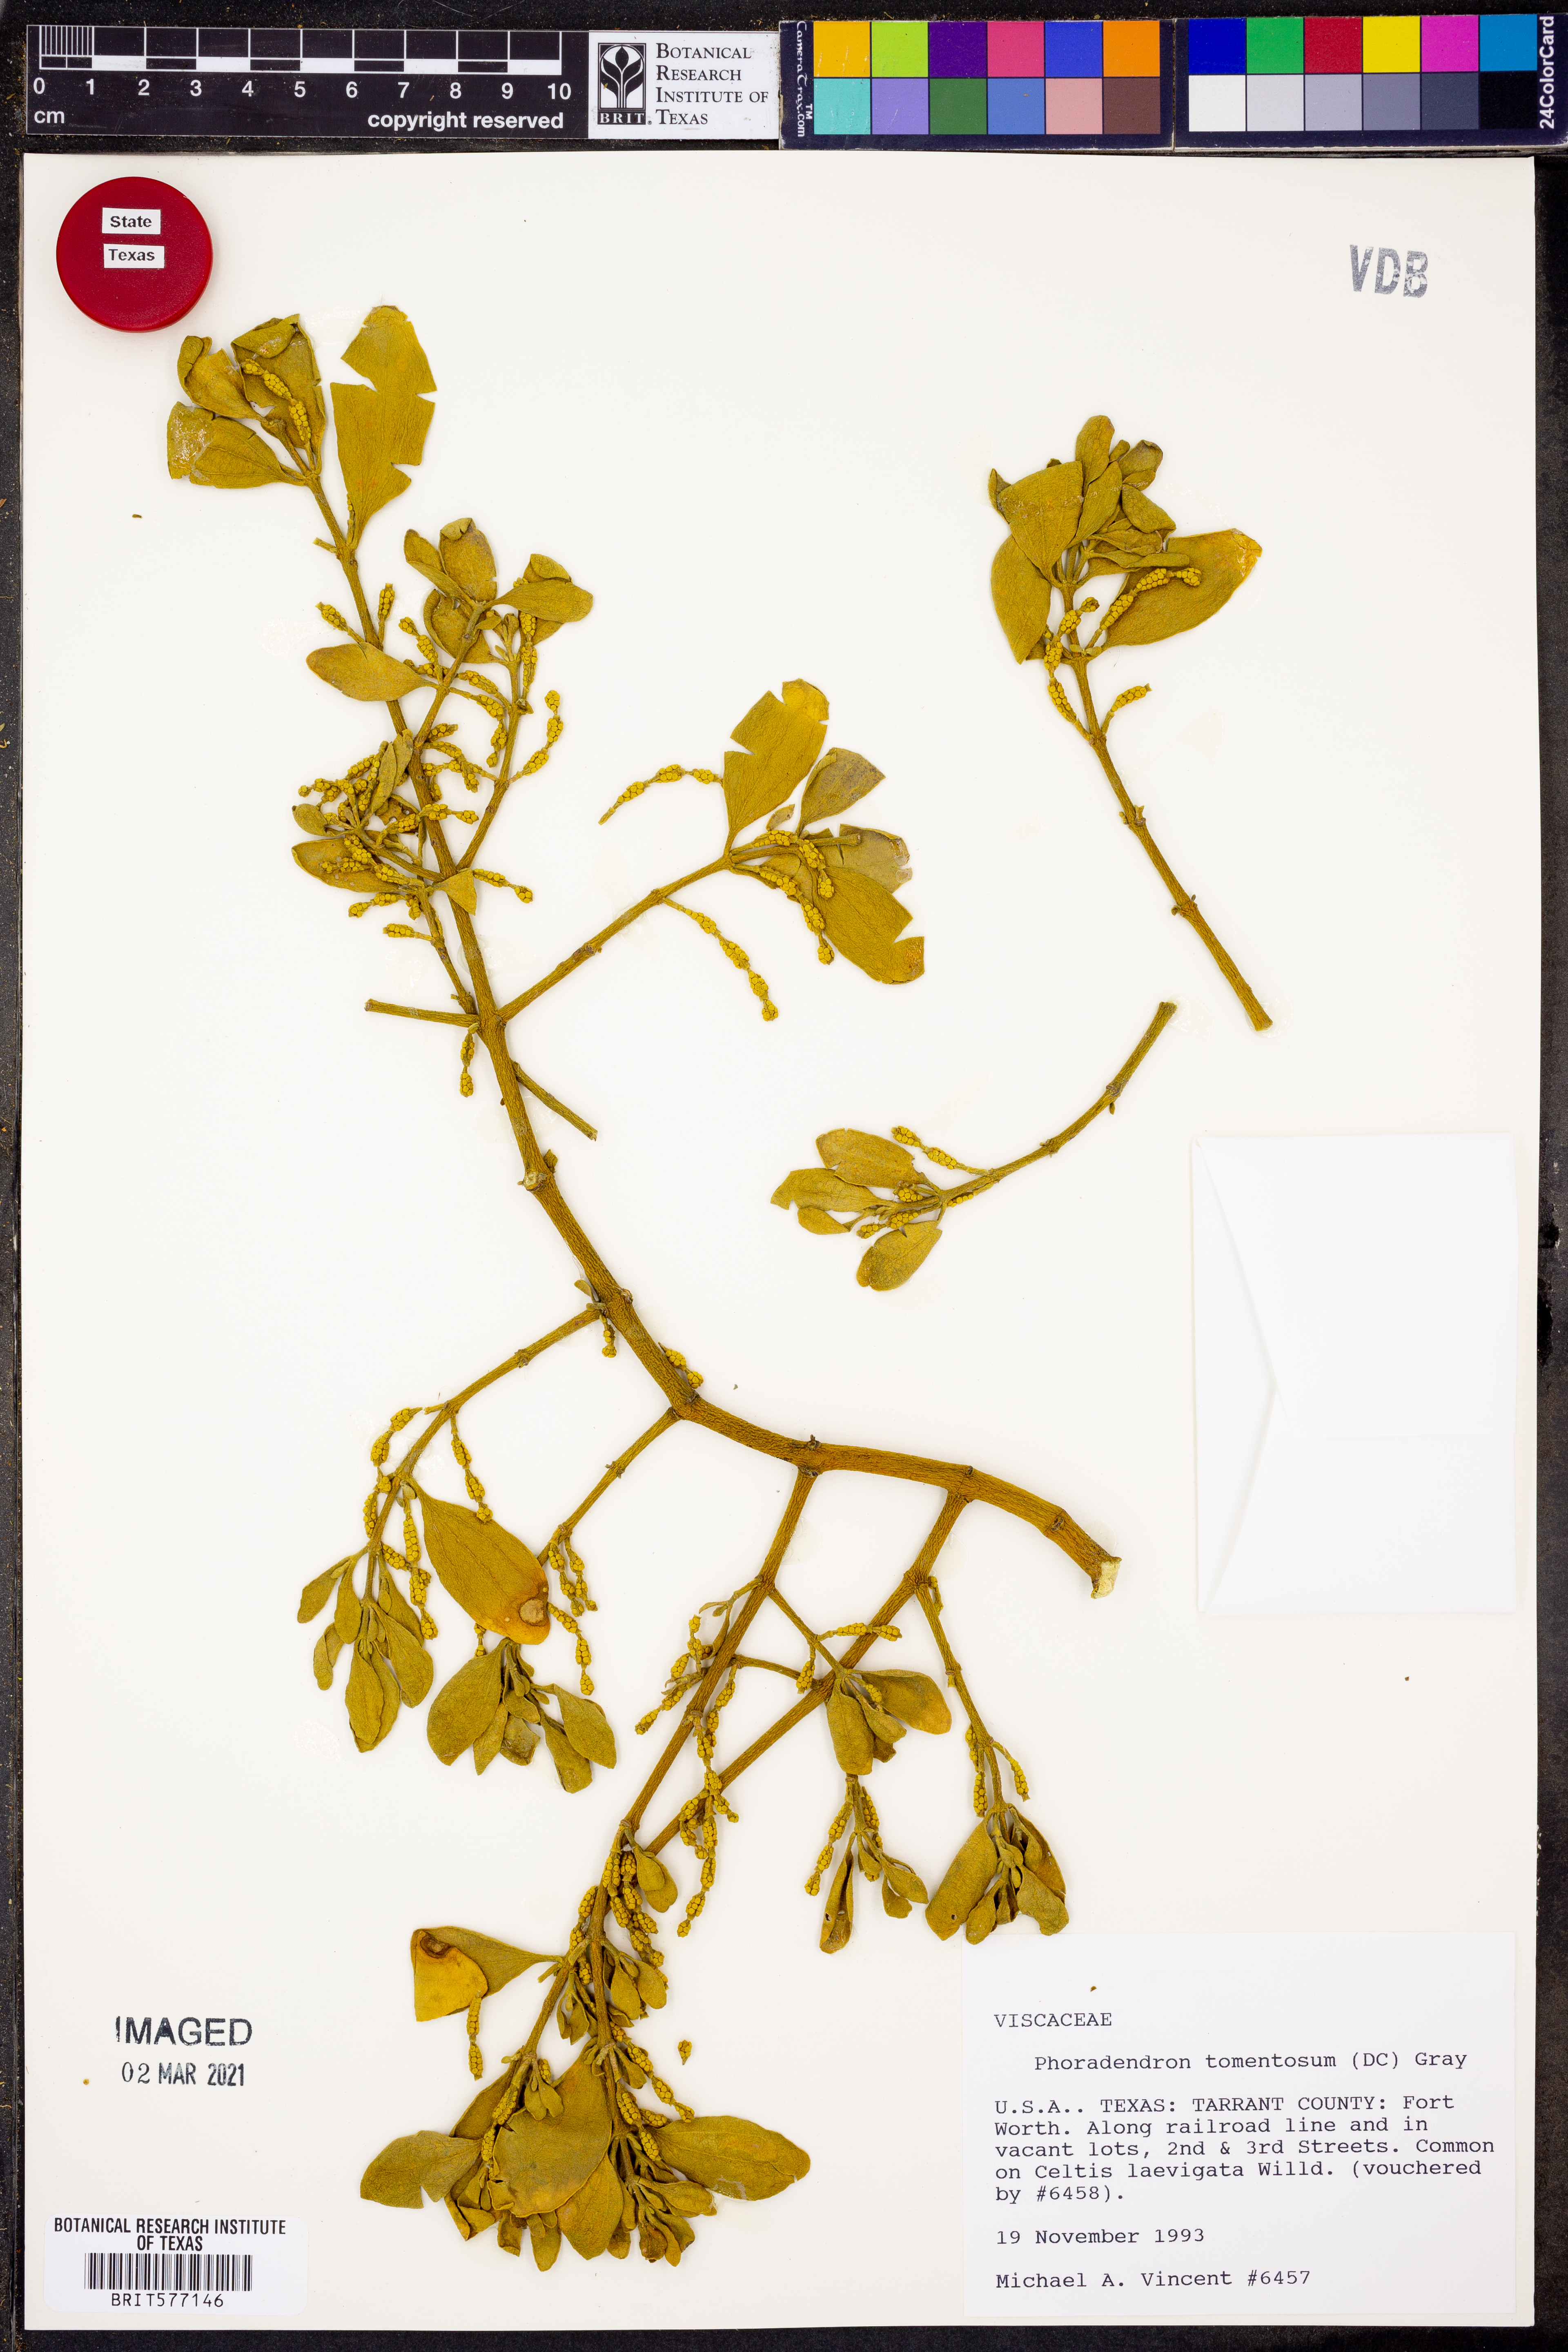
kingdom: Plantae
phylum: Tracheophyta
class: Magnoliopsida
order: Santalales
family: Viscaceae
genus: Phoradendron
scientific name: Phoradendron leucarpum
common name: Pacific mistletoe
